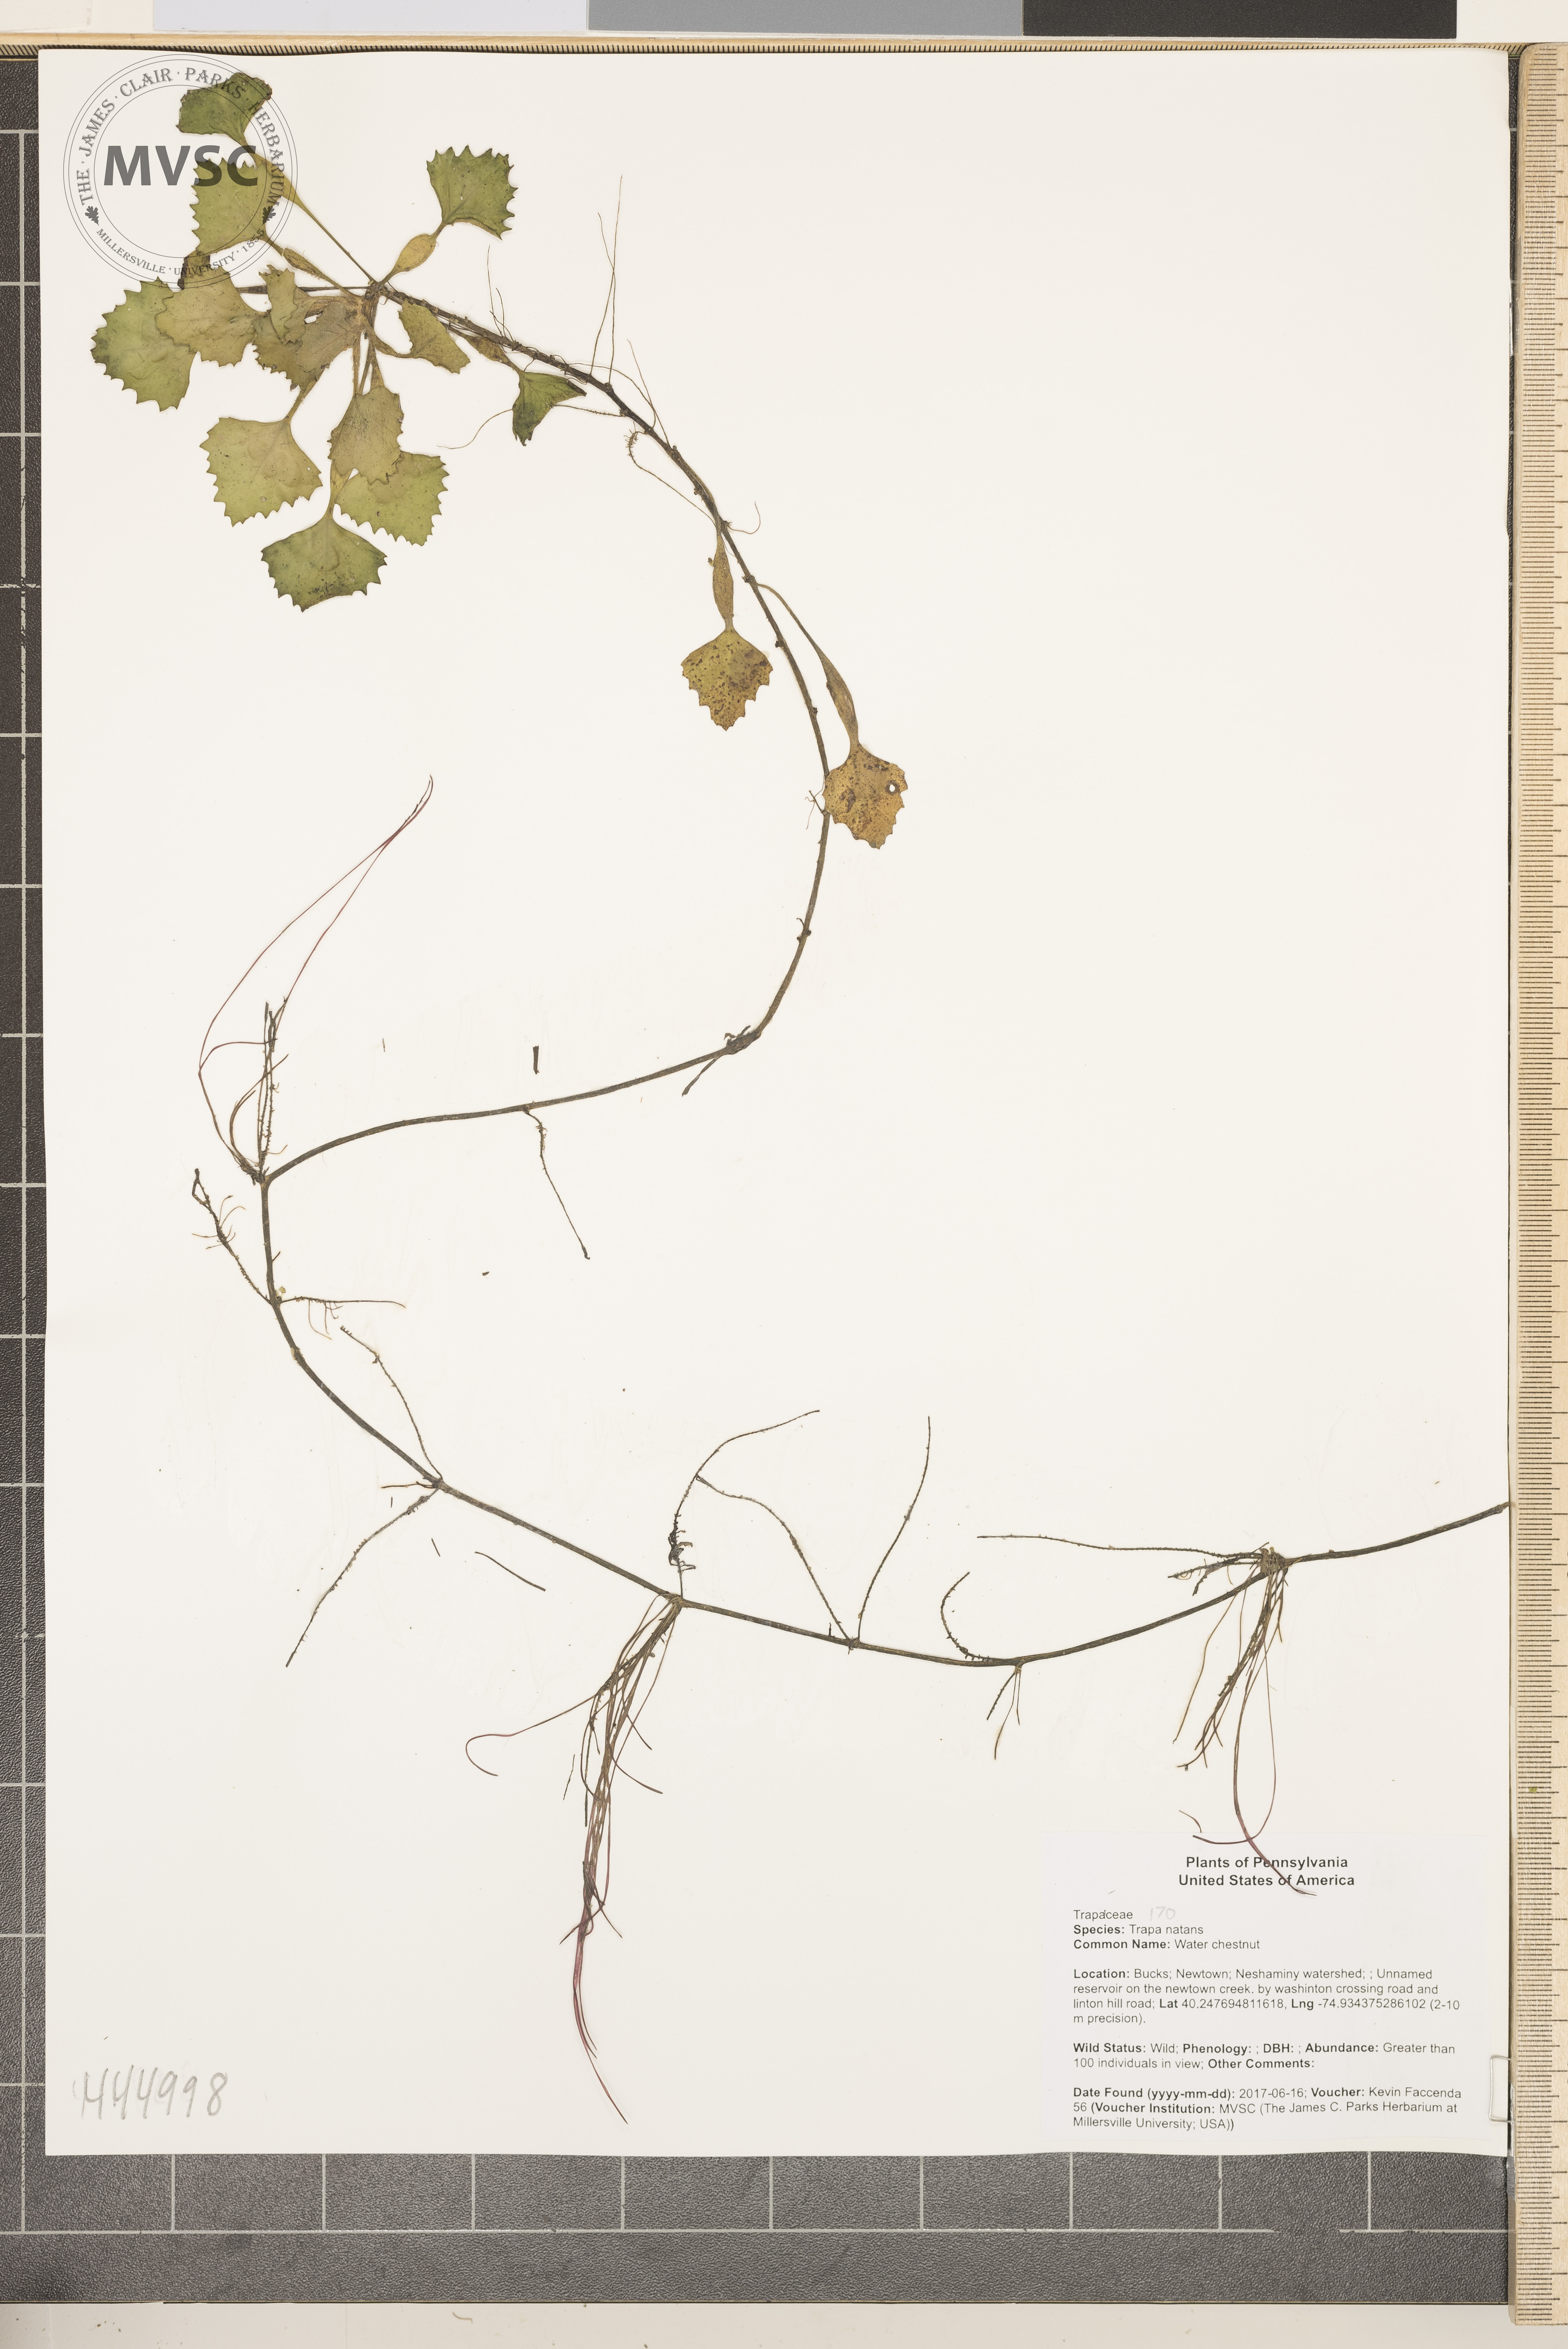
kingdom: Plantae
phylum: Tracheophyta
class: Magnoliopsida
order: Myrtales
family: Lythraceae
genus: Trapa
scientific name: Trapa natans
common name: Water chestnut
